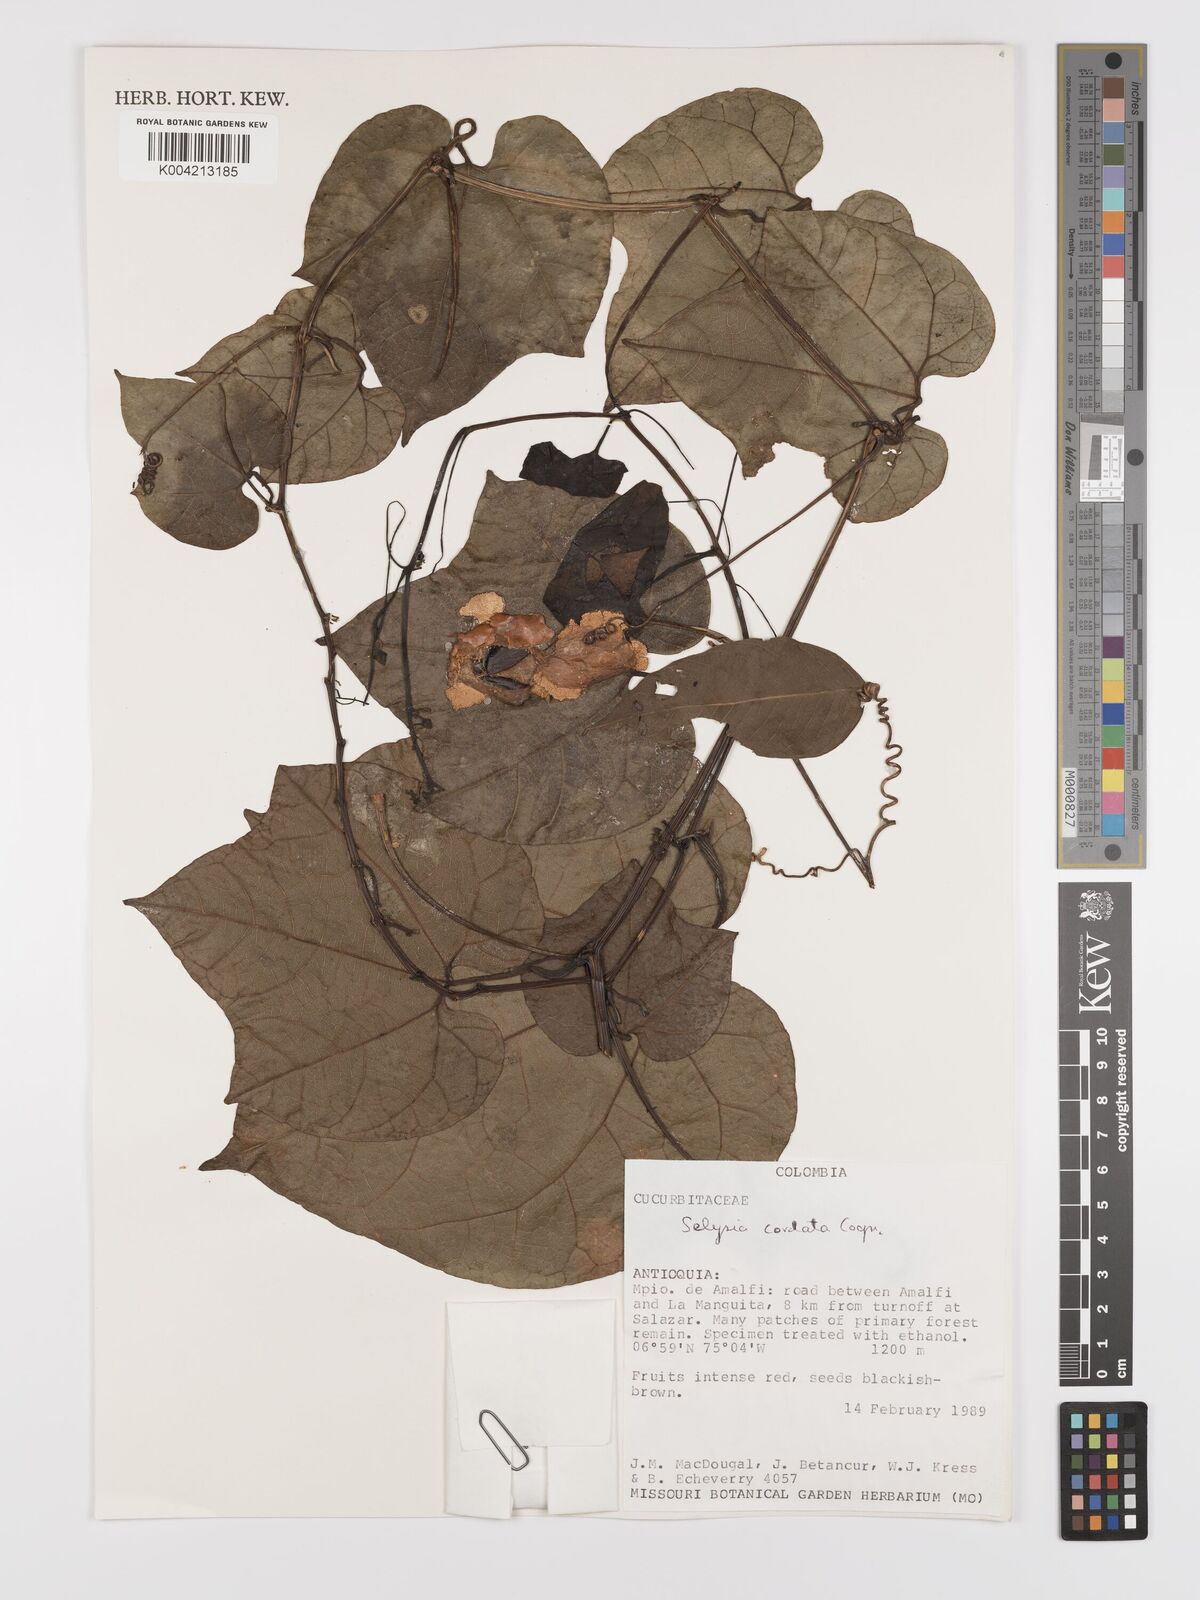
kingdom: Plantae
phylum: Tracheophyta
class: Magnoliopsida
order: Cucurbitales
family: Cucurbitaceae
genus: Cayaponia
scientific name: Cayaponia cordata
